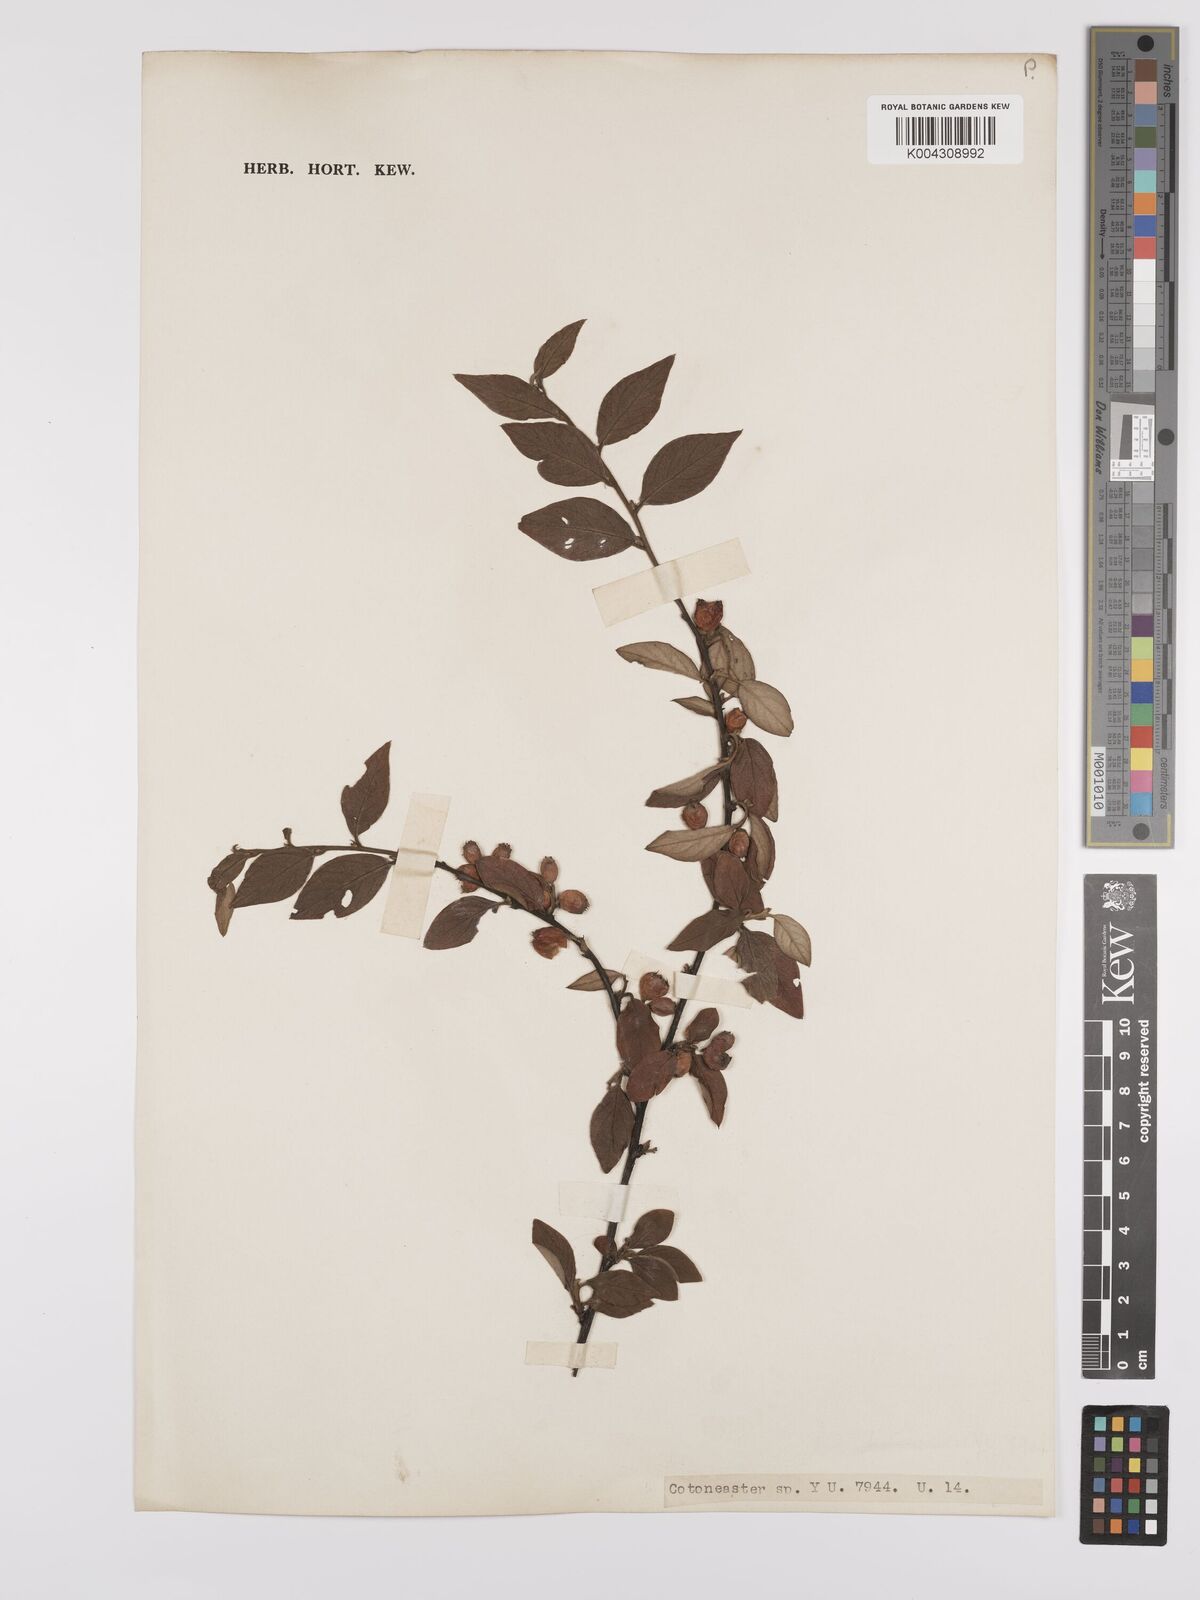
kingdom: Plantae
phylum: Tracheophyta
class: Magnoliopsida
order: Rosales
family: Rosaceae
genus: Cotoneaster
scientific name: Cotoneaster
